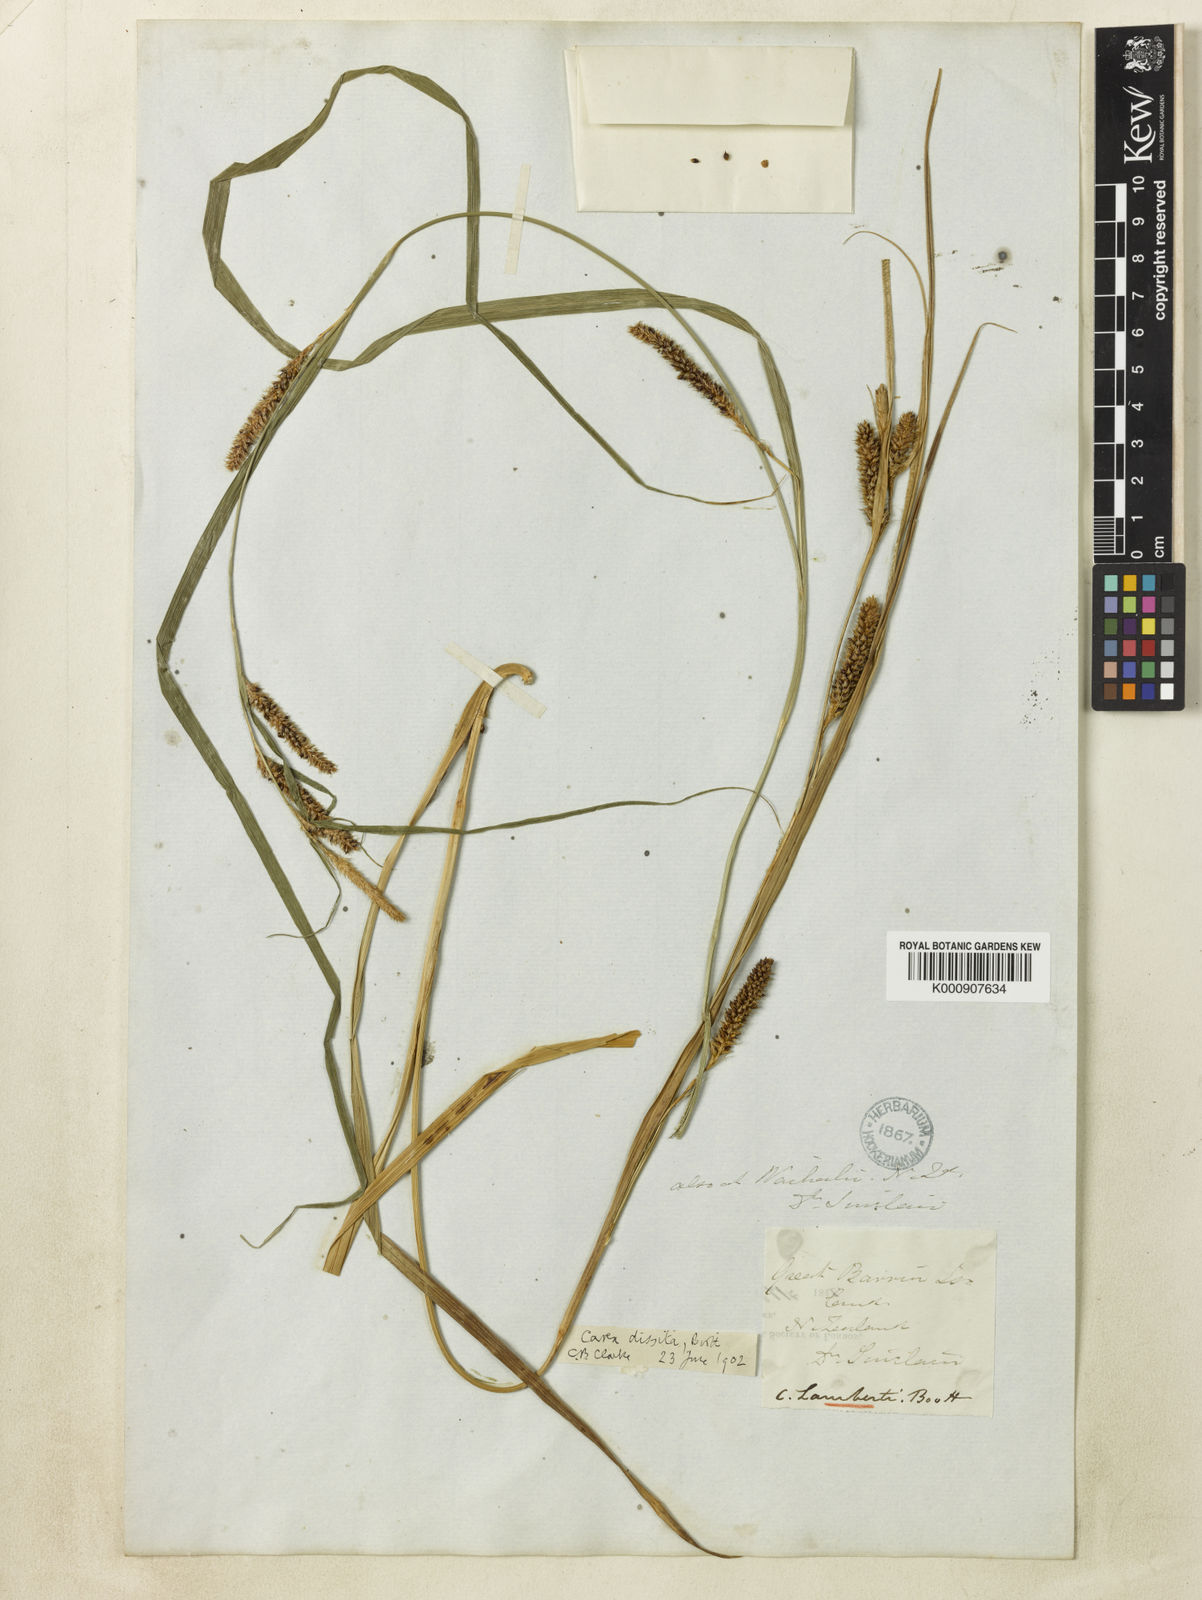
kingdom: Plantae
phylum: Tracheophyta
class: Liliopsida
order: Poales
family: Cyperaceae
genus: Carex
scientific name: Carex dissita
